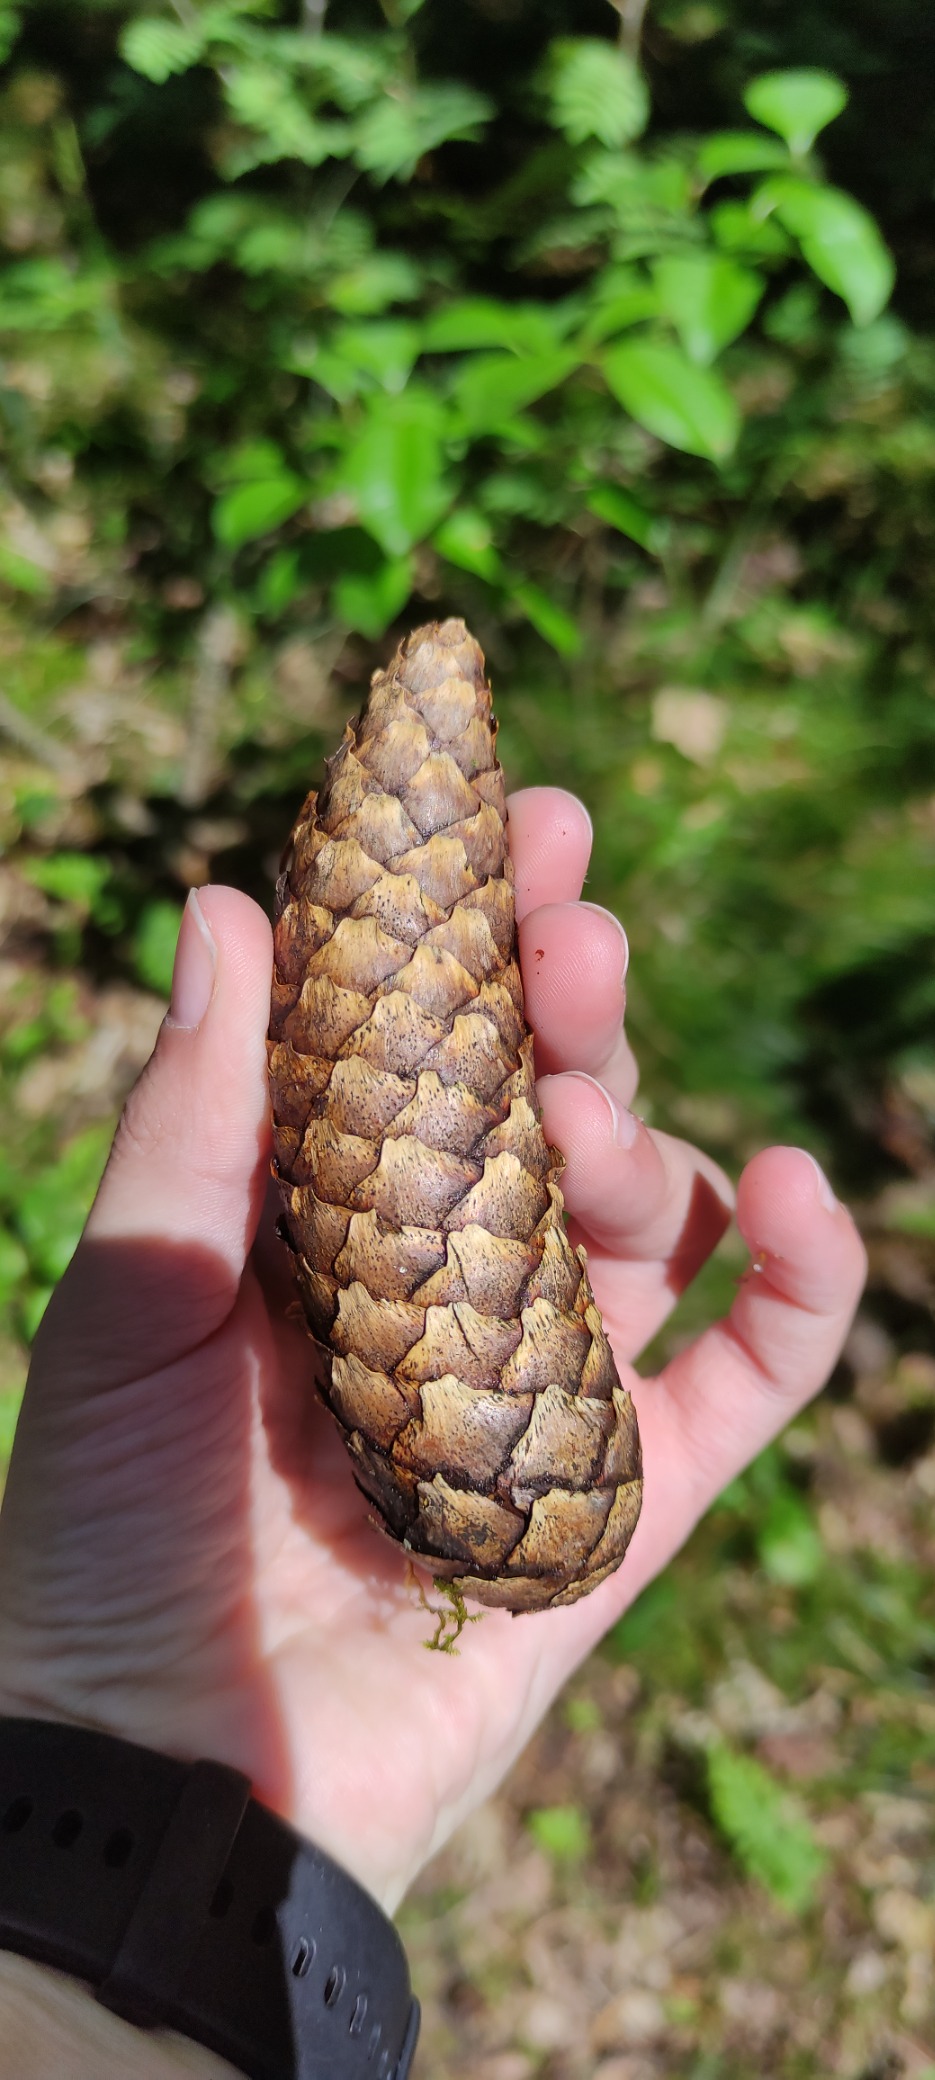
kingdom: Plantae
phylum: Tracheophyta
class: Pinopsida
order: Pinales
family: Pinaceae
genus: Picea
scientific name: Picea abies
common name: Rød-gran
